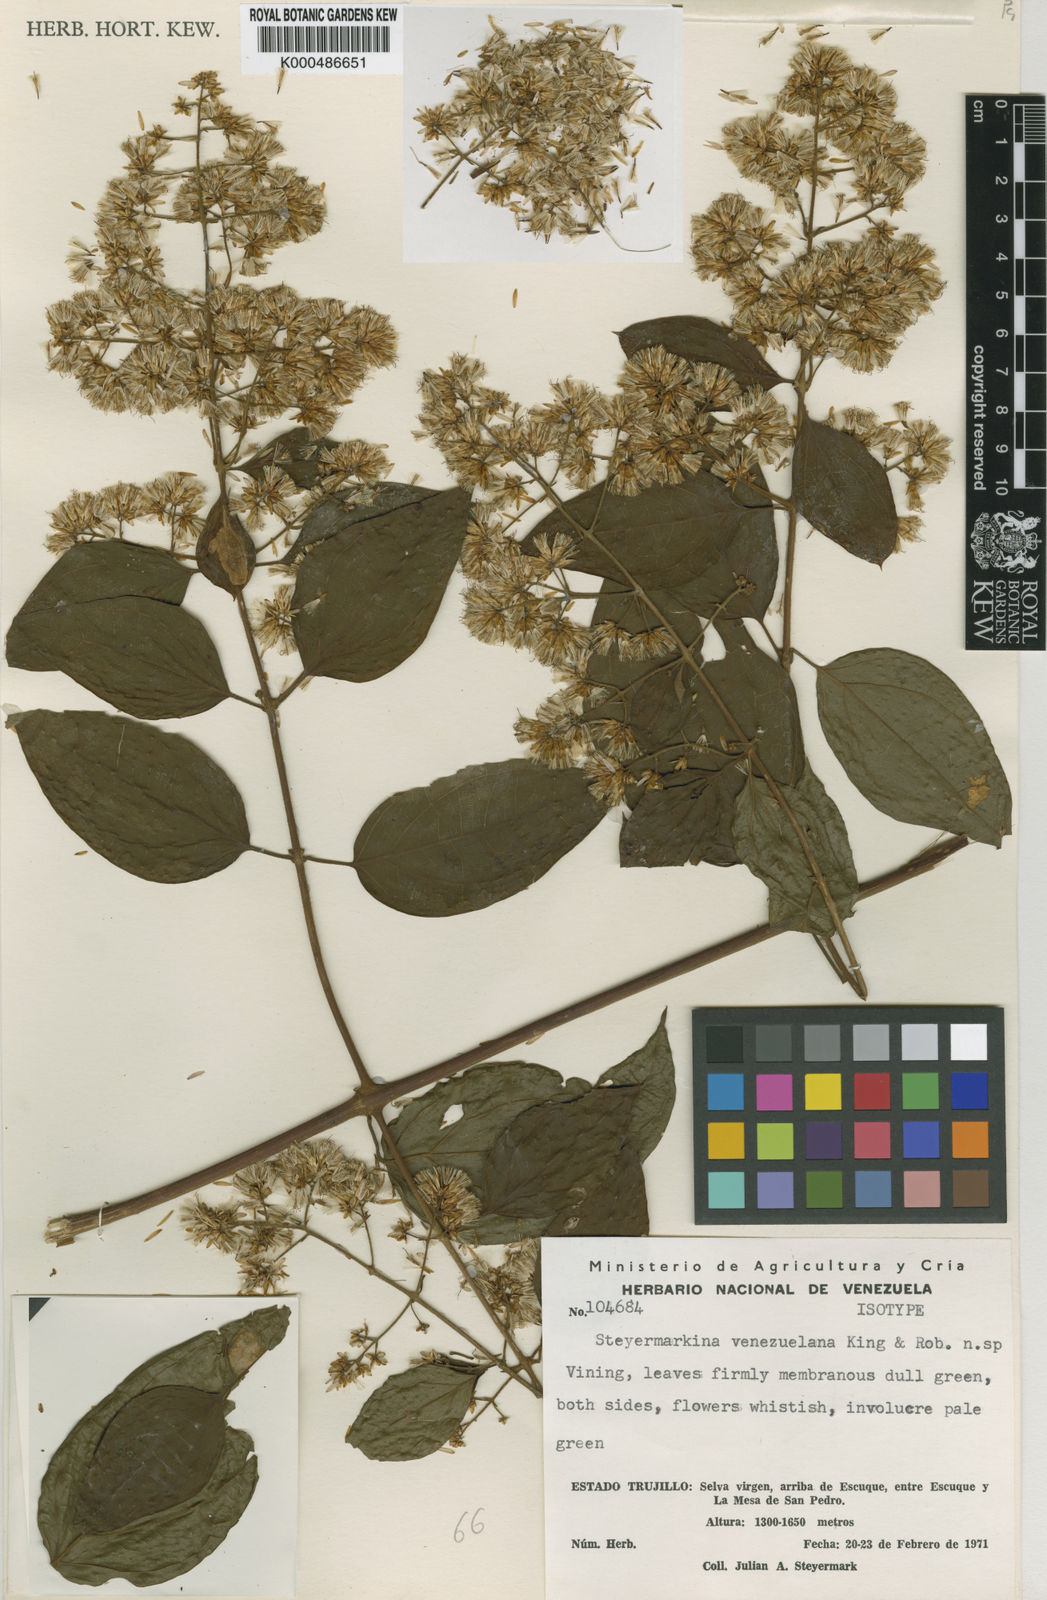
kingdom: Plantae
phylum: Tracheophyta
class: Magnoliopsida
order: Asterales
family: Asteraceae
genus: Steyermarkina
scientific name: Steyermarkina triflora
